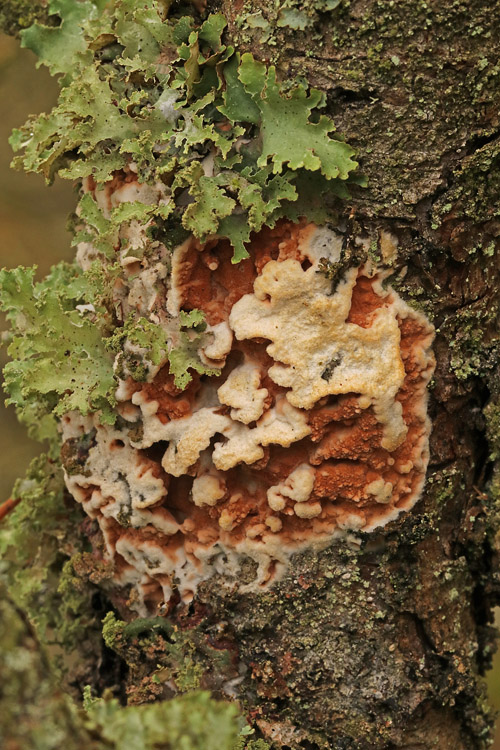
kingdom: Fungi
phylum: Basidiomycota
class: Agaricomycetes
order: Polyporales
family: Irpicaceae
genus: Meruliopsis
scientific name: Meruliopsis taxicola
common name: purpurbrun foldporesvamp
